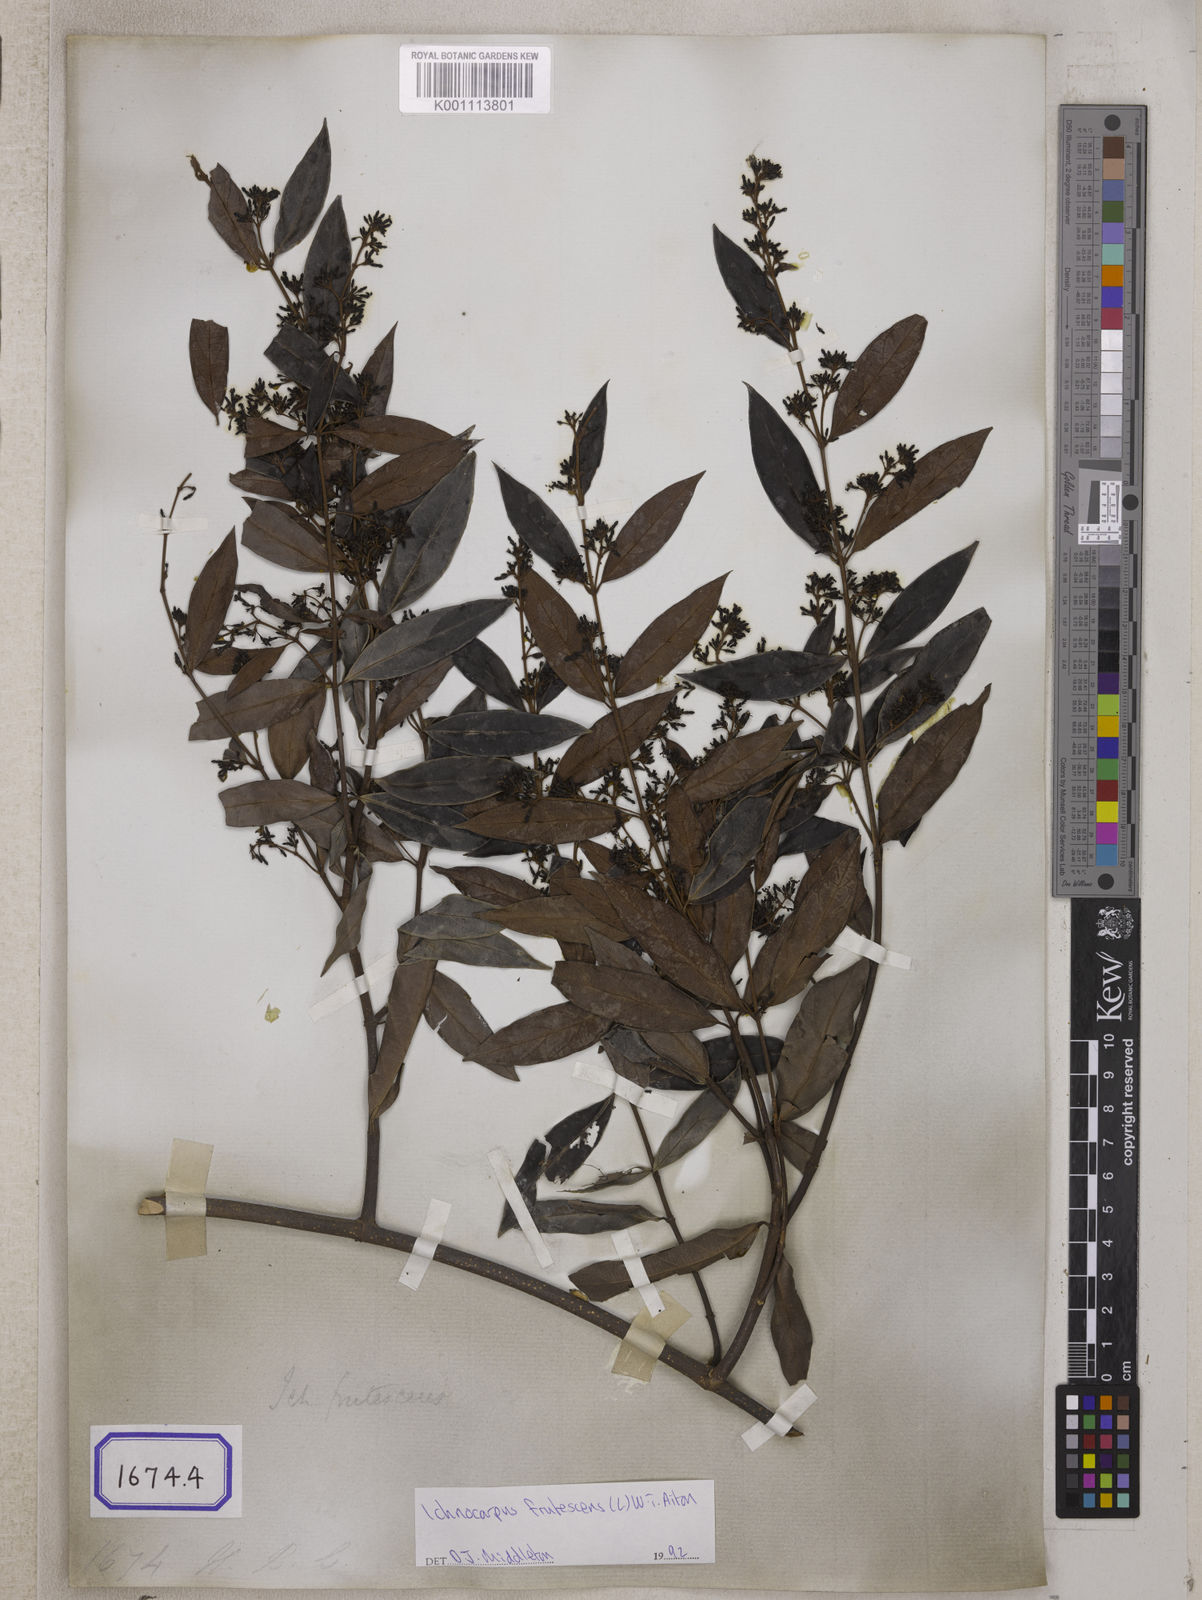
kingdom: Plantae
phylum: Tracheophyta
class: Magnoliopsida
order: Gentianales
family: Apocynaceae
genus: Ichnocarpus
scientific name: Ichnocarpus
